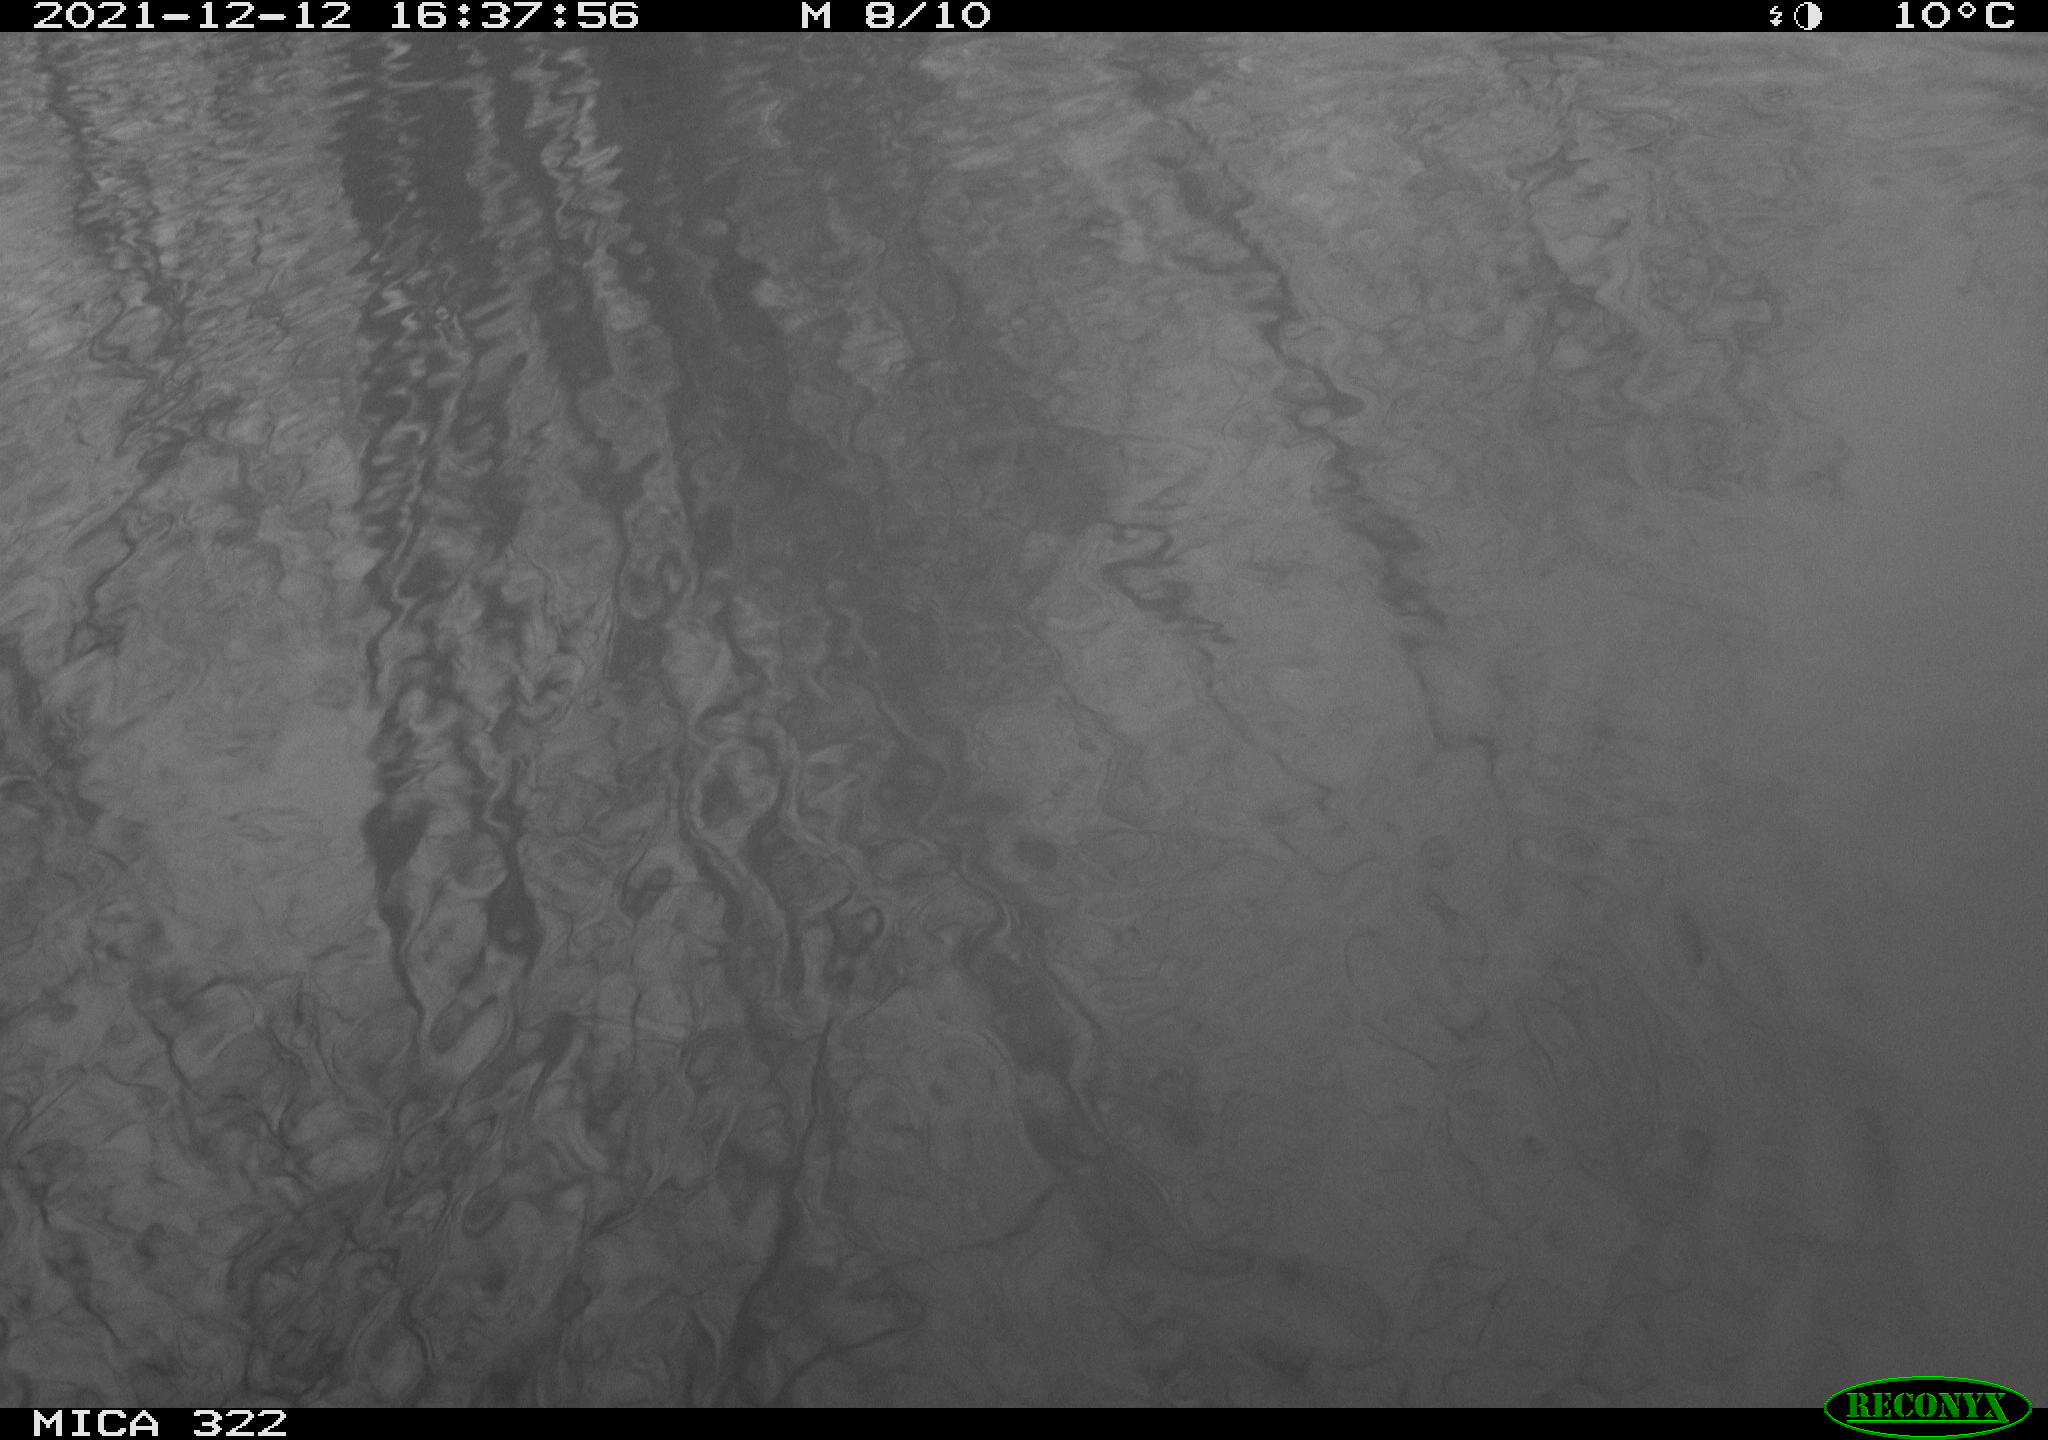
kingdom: Animalia
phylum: Chordata
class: Aves
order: Gruiformes
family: Rallidae
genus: Fulica
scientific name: Fulica atra
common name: Eurasian coot
